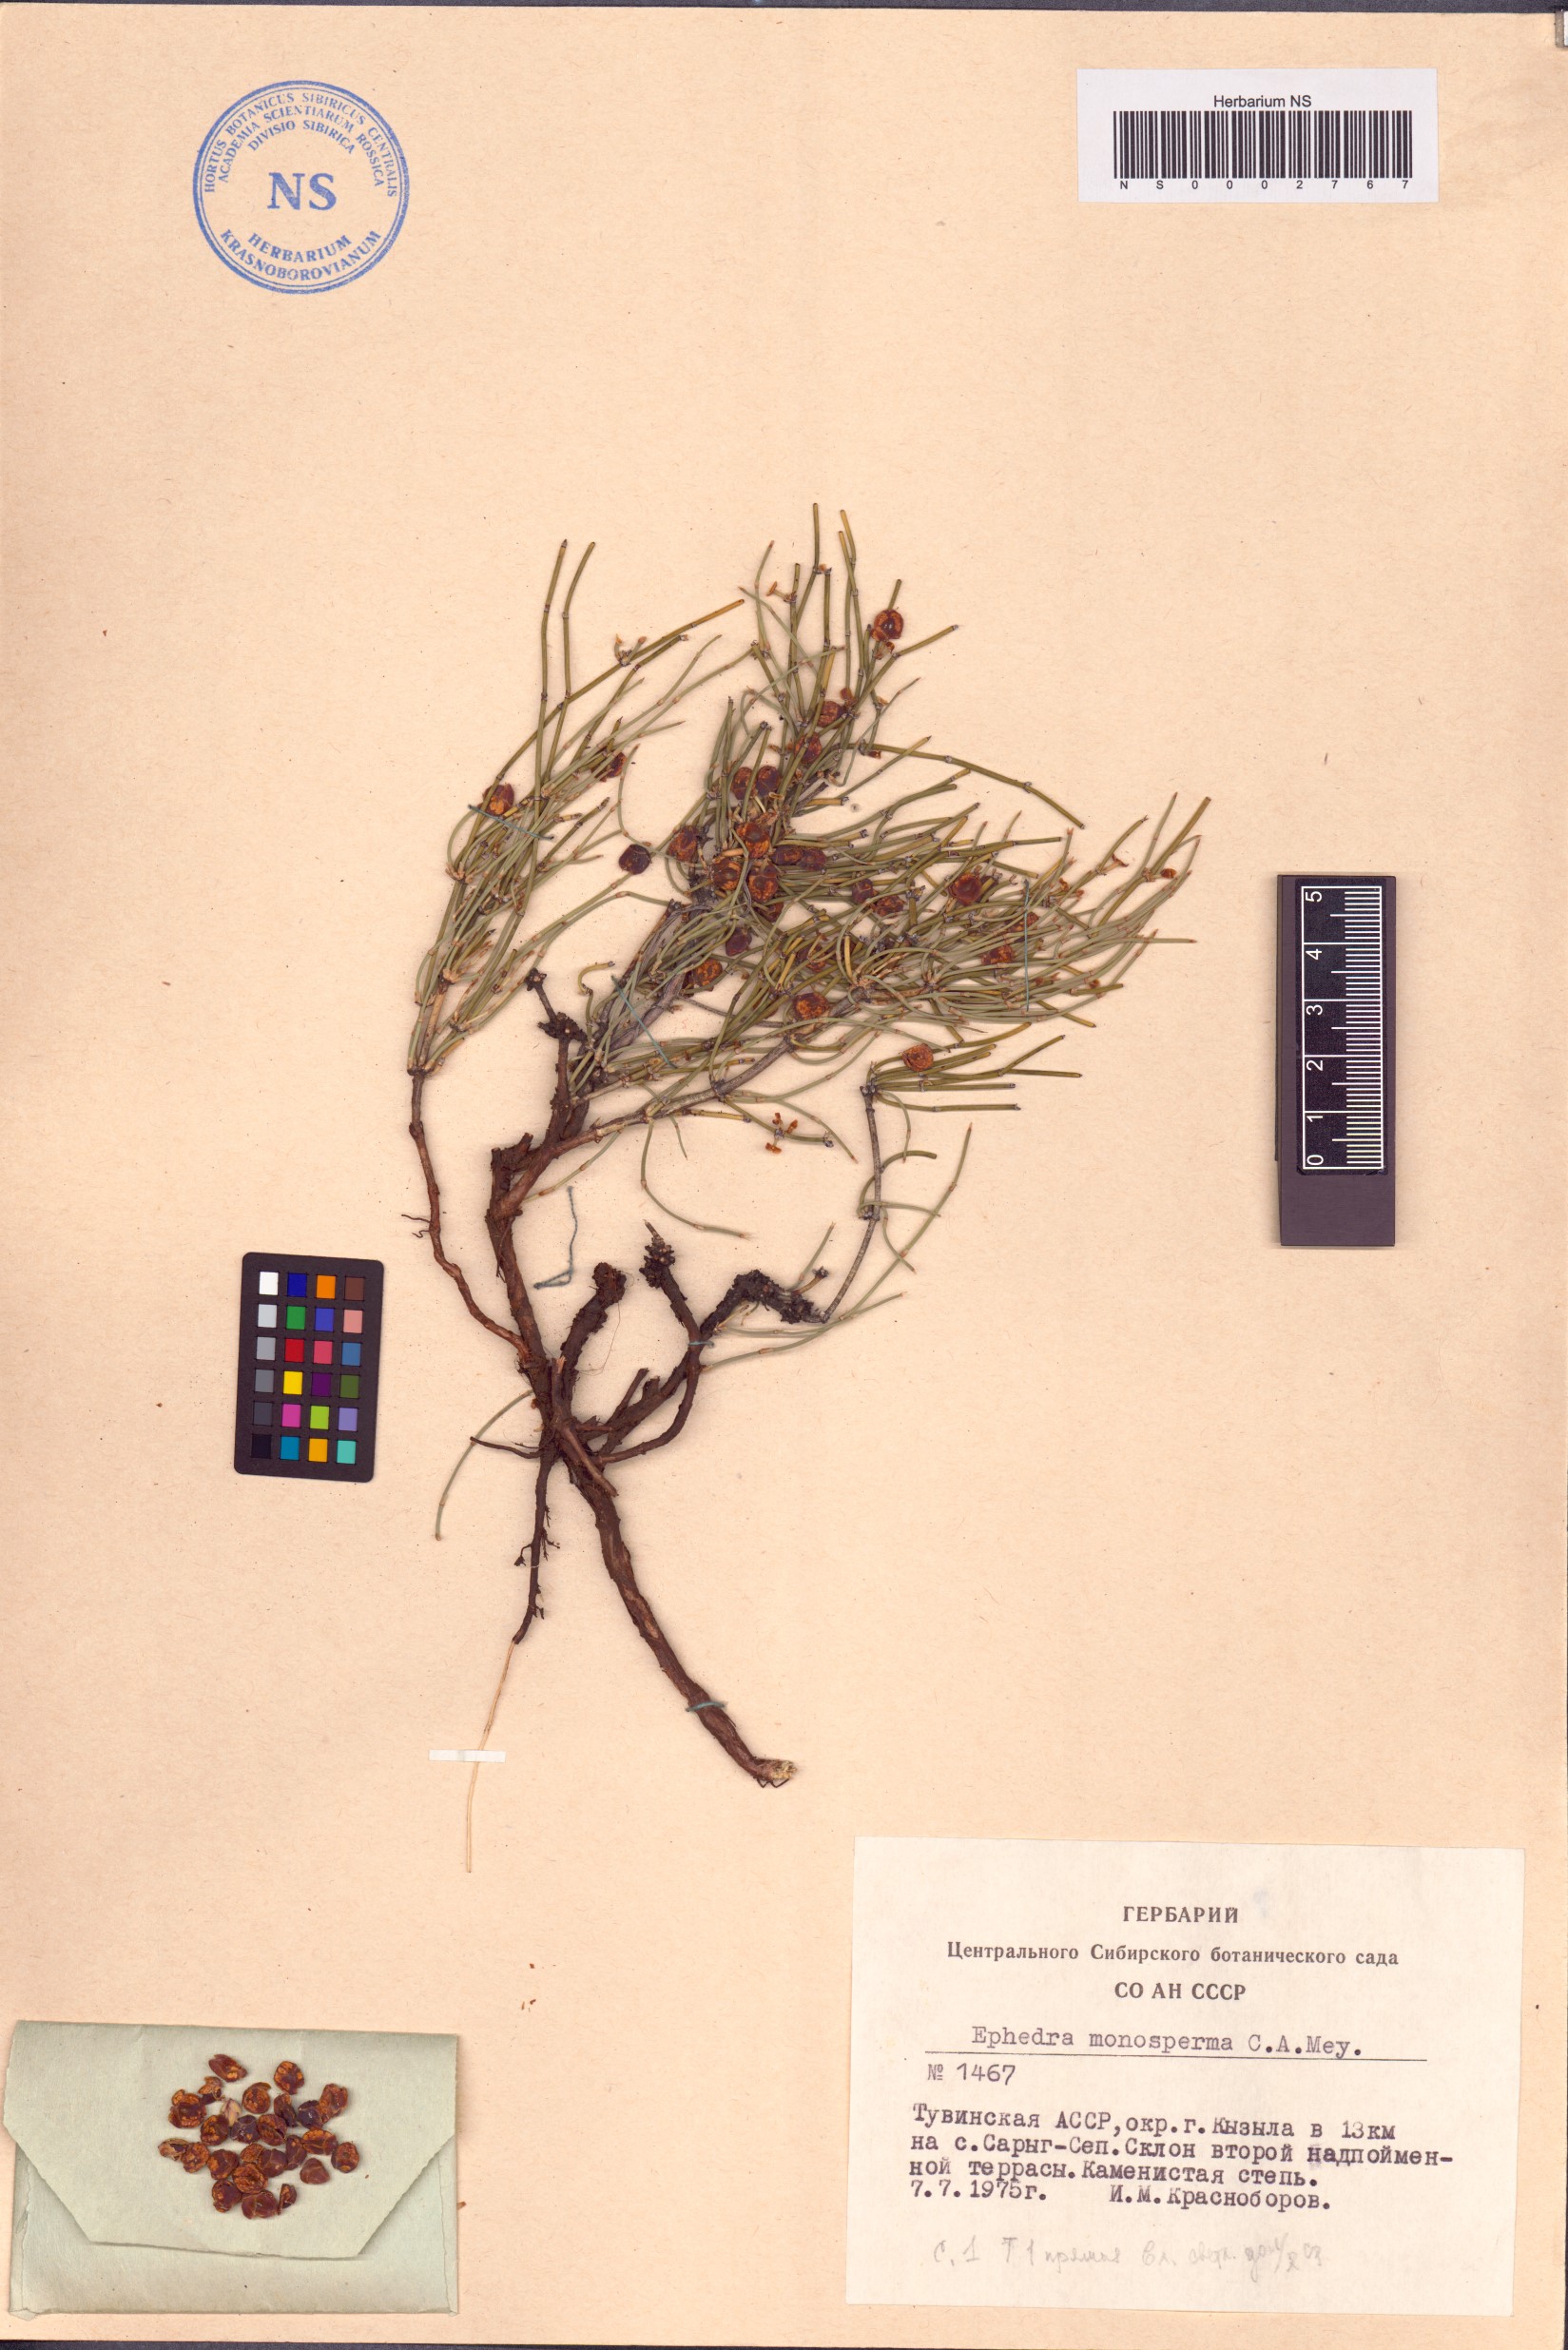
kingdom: Plantae
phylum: Tracheophyta
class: Gnetopsida
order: Ephedrales
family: Ephedraceae
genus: Ephedra
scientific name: Ephedra monosperma
